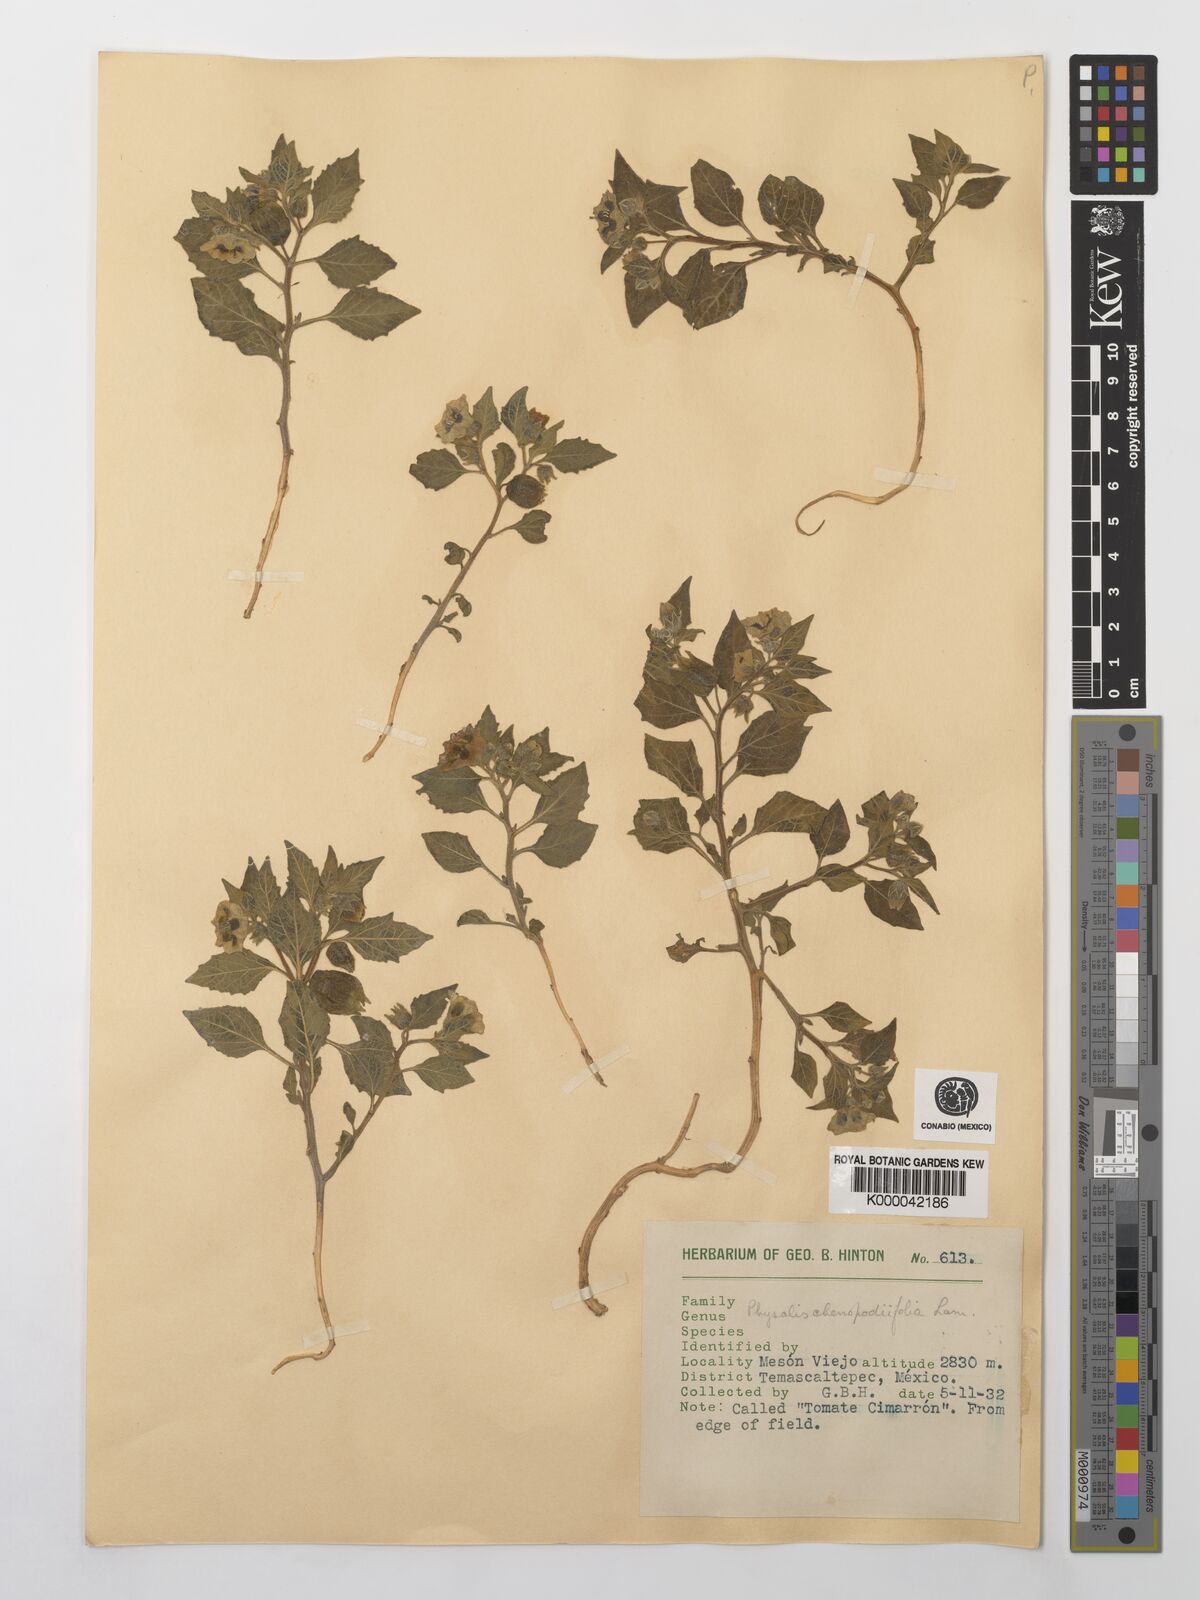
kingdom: Plantae
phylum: Tracheophyta
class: Magnoliopsida
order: Solanales
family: Solanaceae
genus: Physalis
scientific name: Physalis peruviana
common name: Cape-gooseberry
